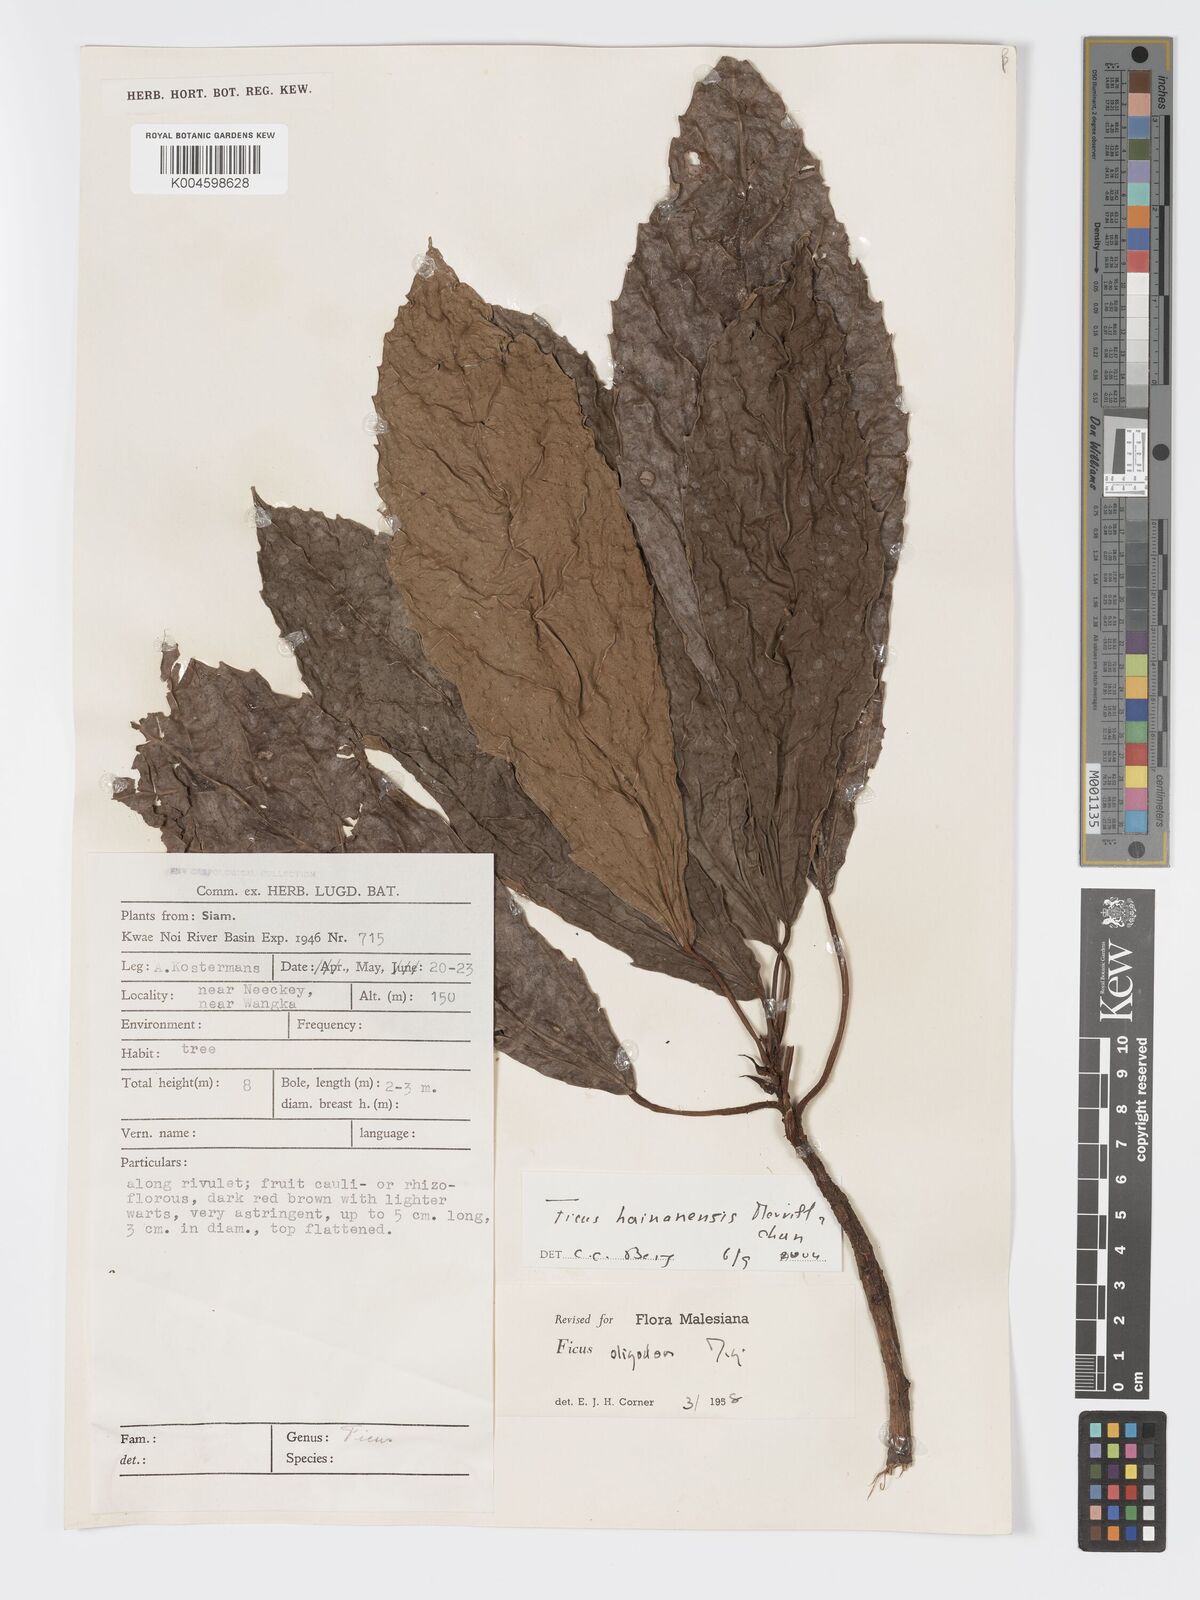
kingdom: Plantae
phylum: Tracheophyta
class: Magnoliopsida
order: Rosales
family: Moraceae
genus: Ficus
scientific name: Ficus auriculata
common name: Roxburgh fig
